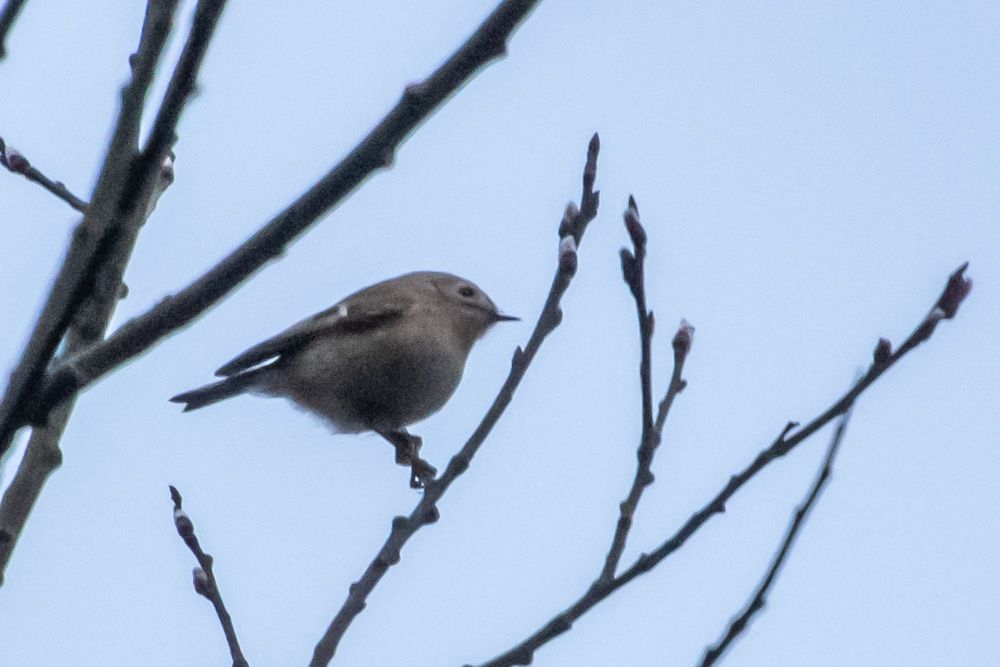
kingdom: Animalia
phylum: Chordata
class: Aves
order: Passeriformes
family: Regulidae
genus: Regulus
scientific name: Regulus regulus
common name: Goldcrest
